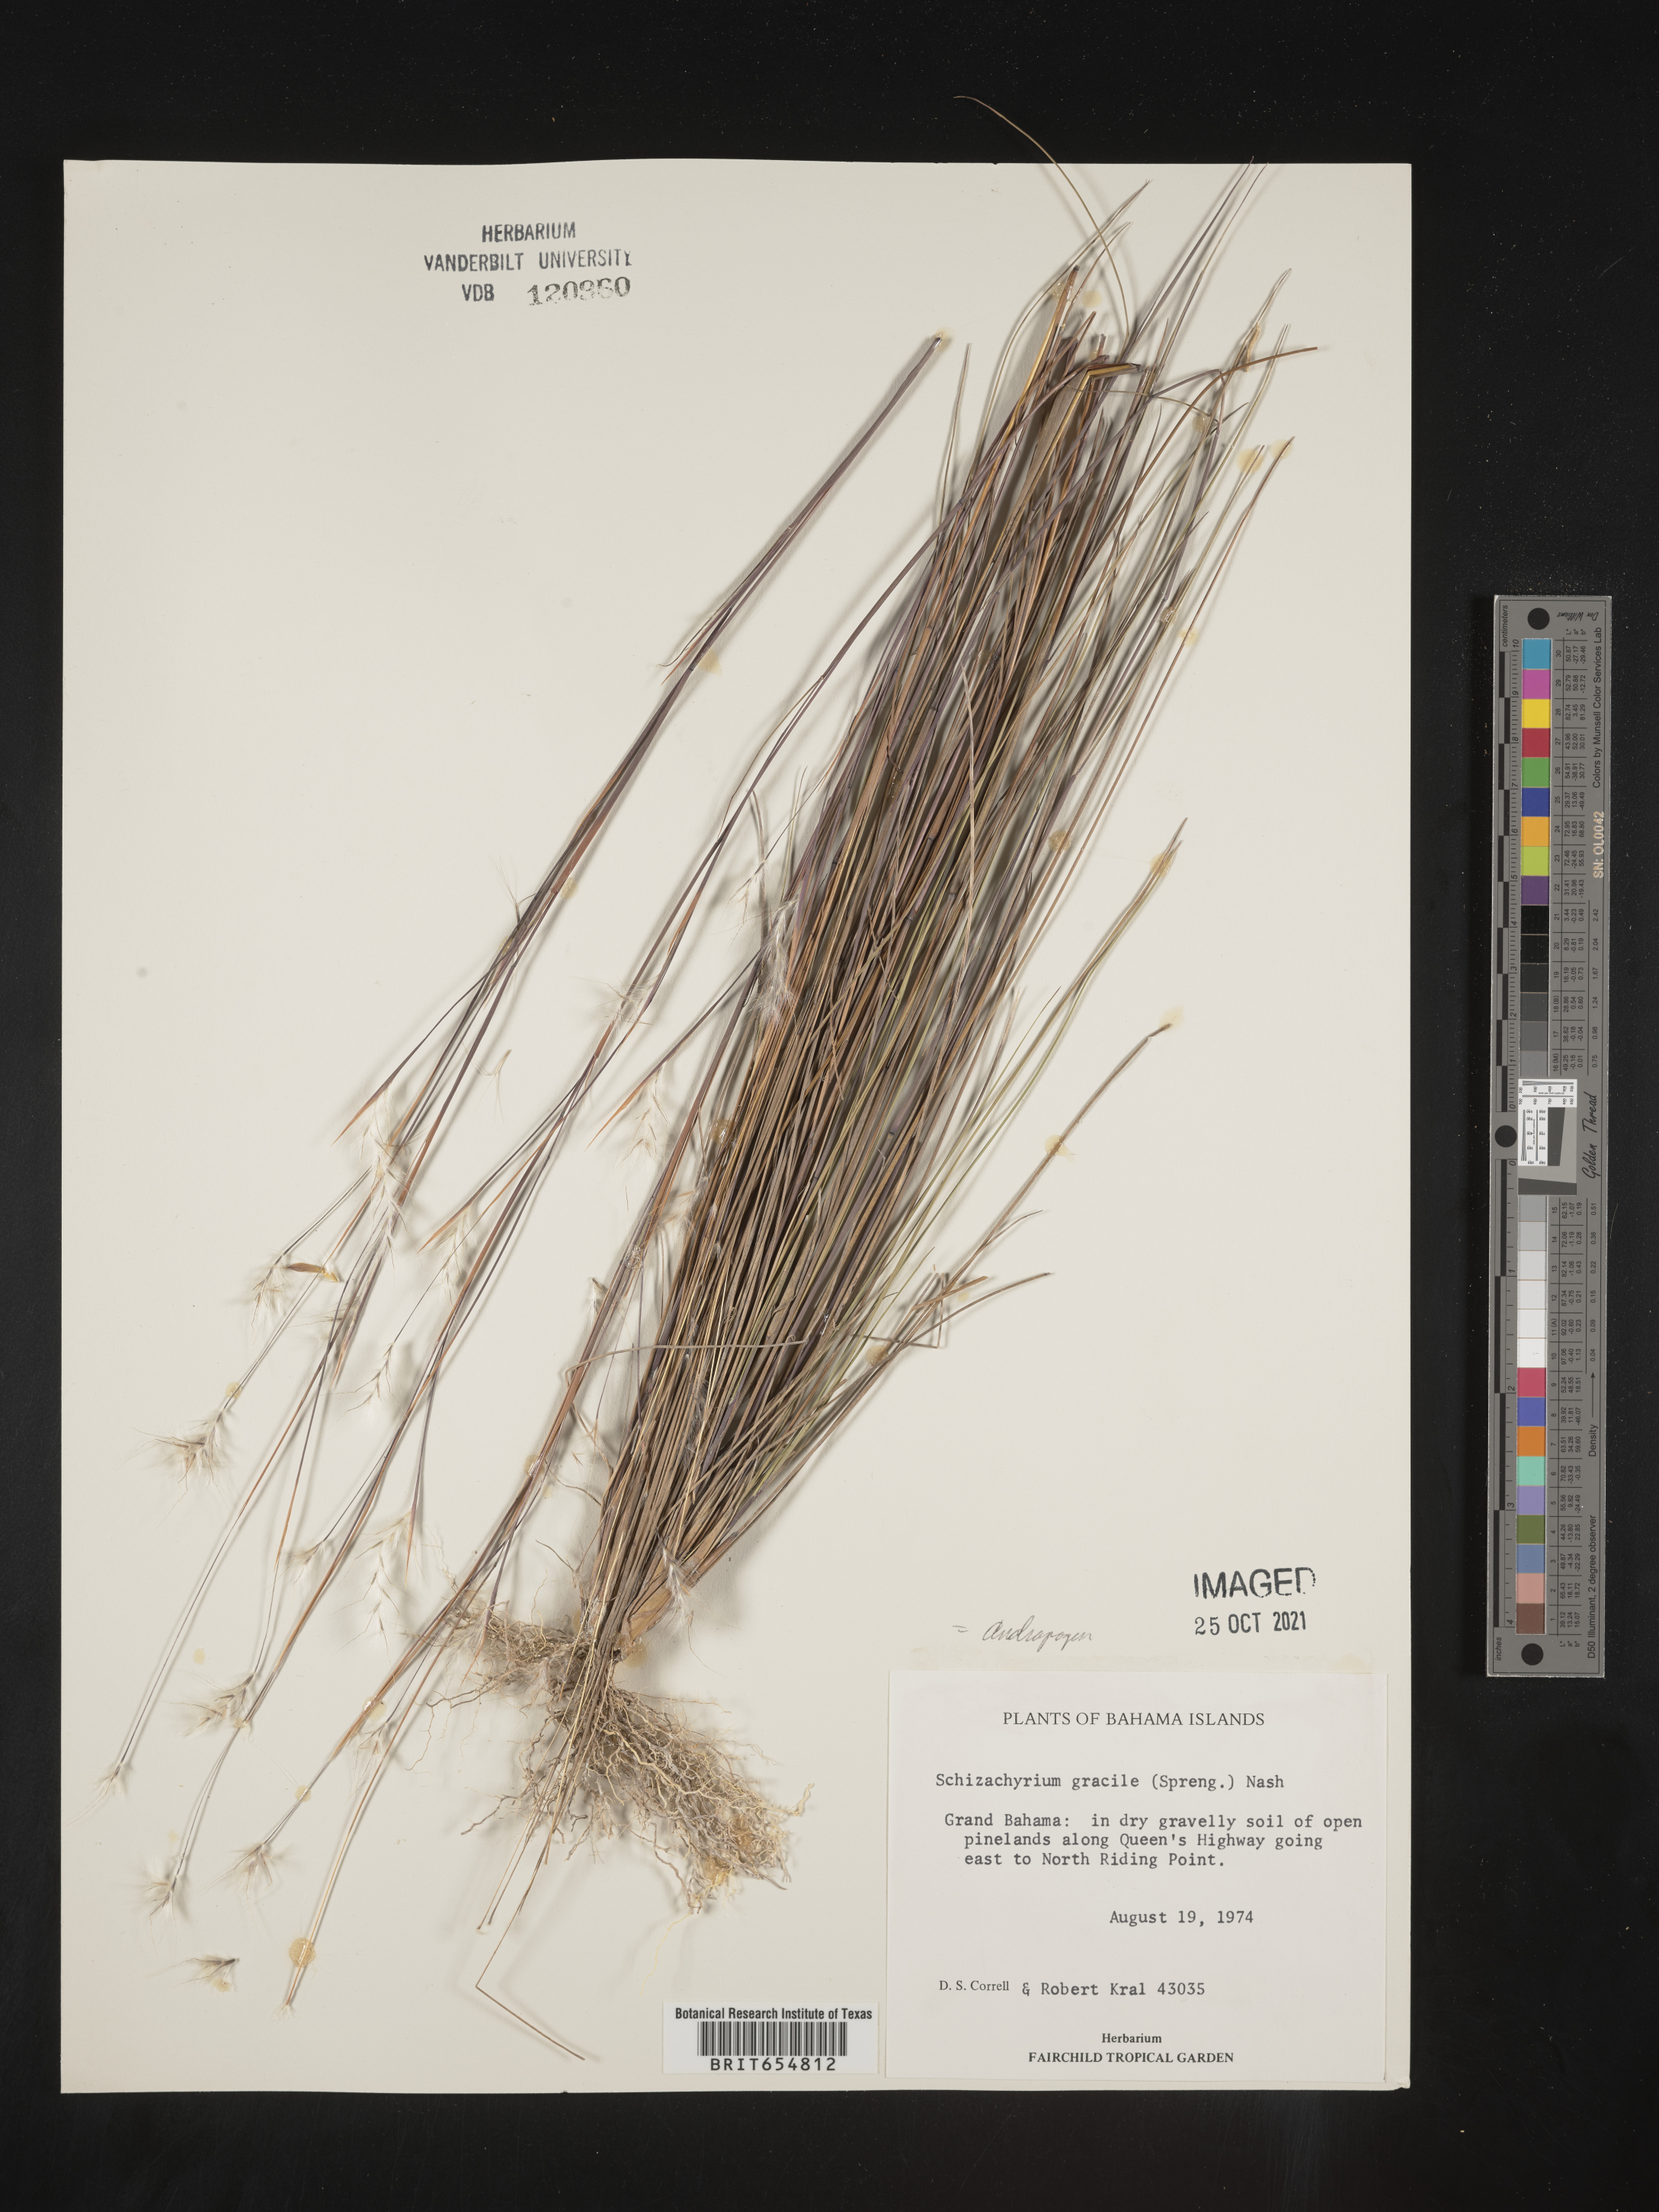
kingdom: Plantae
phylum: Tracheophyta
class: Liliopsida
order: Poales
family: Poaceae
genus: Andropogon
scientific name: Andropogon
